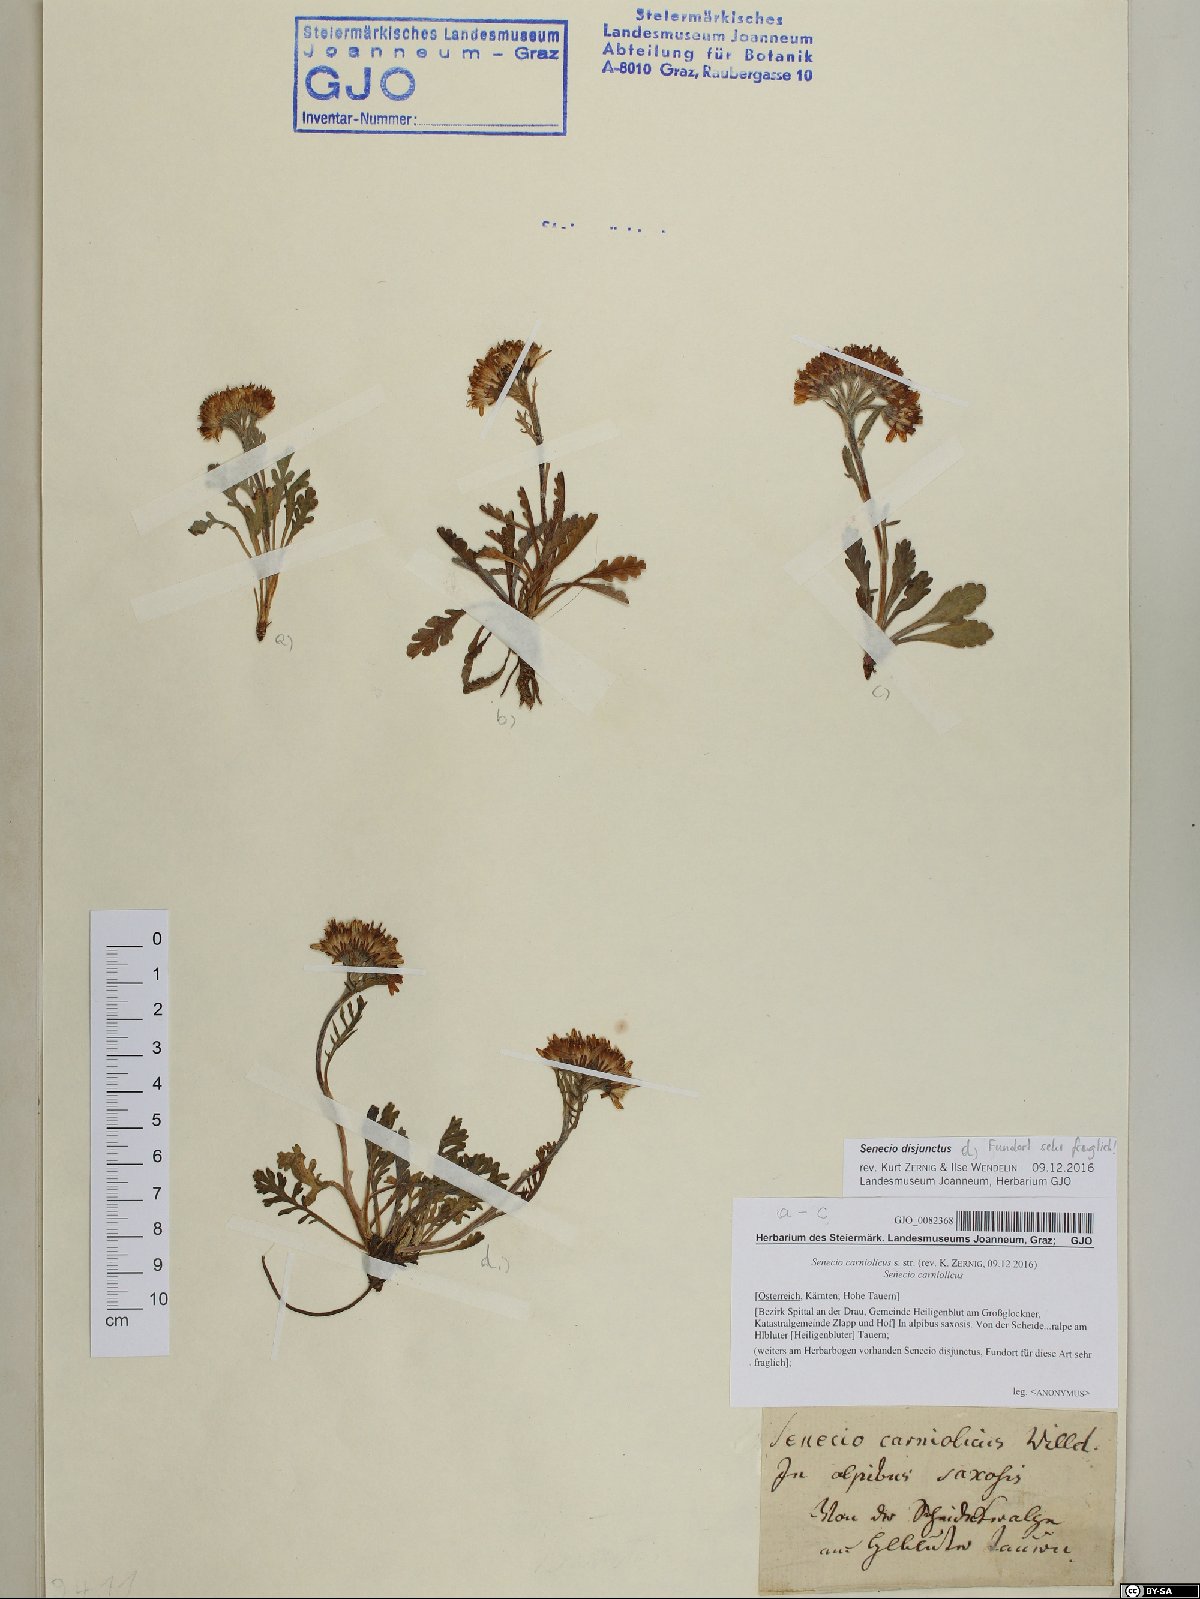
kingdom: Plantae
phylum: Tracheophyta
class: Magnoliopsida
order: Asterales
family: Asteraceae
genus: Jacobaea
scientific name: Jacobaea carniolica
